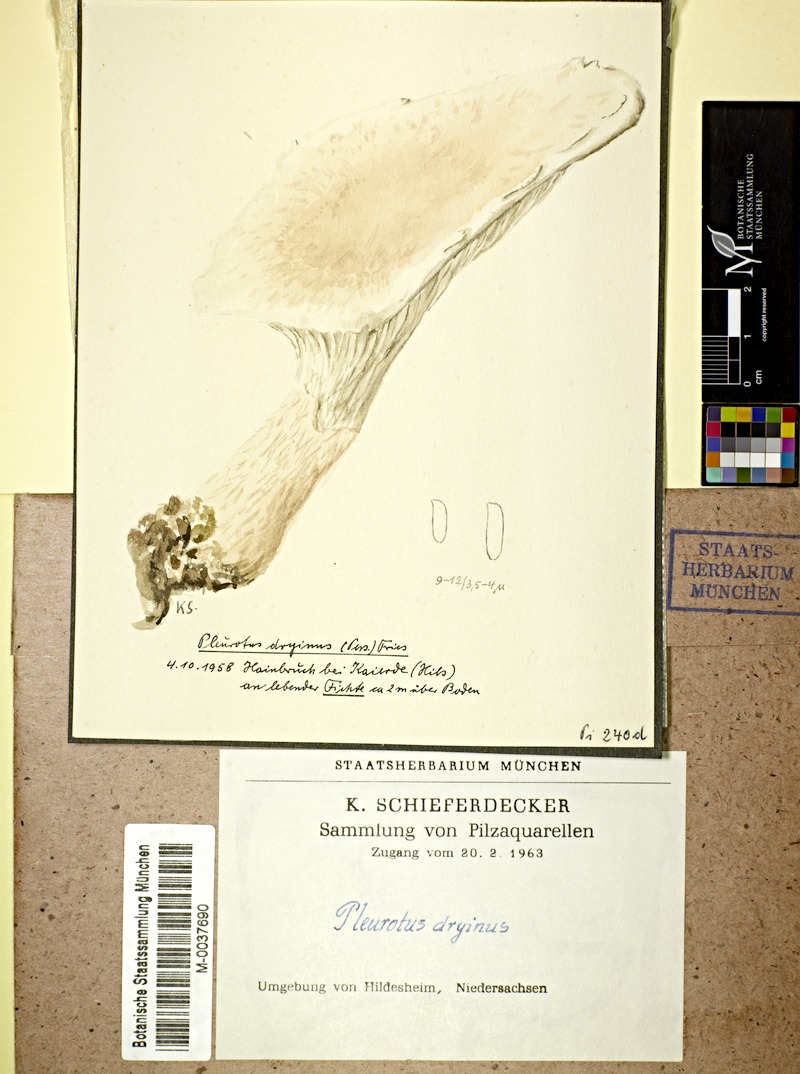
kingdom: Plantae
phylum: Tracheophyta
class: Pinopsida
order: Pinales
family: Pinaceae
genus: Picea
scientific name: Picea
